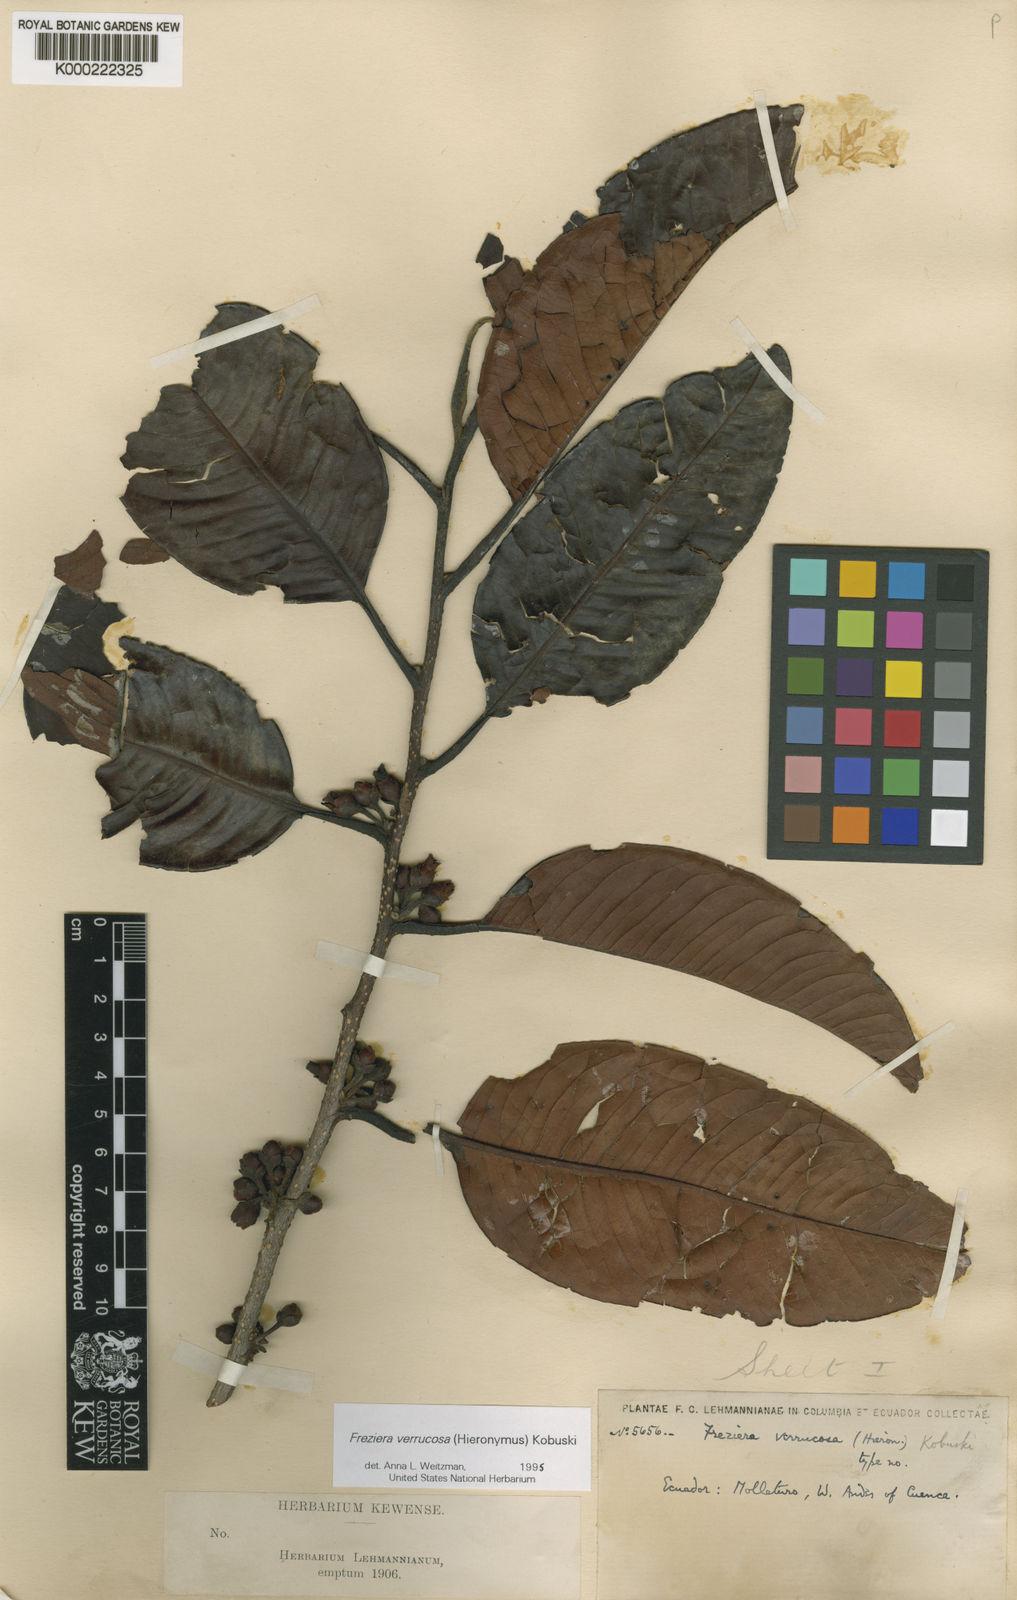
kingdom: Plantae
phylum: Tracheophyta
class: Magnoliopsida
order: Ericales
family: Pentaphylacaceae
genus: Freziera
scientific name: Freziera verrucosa
